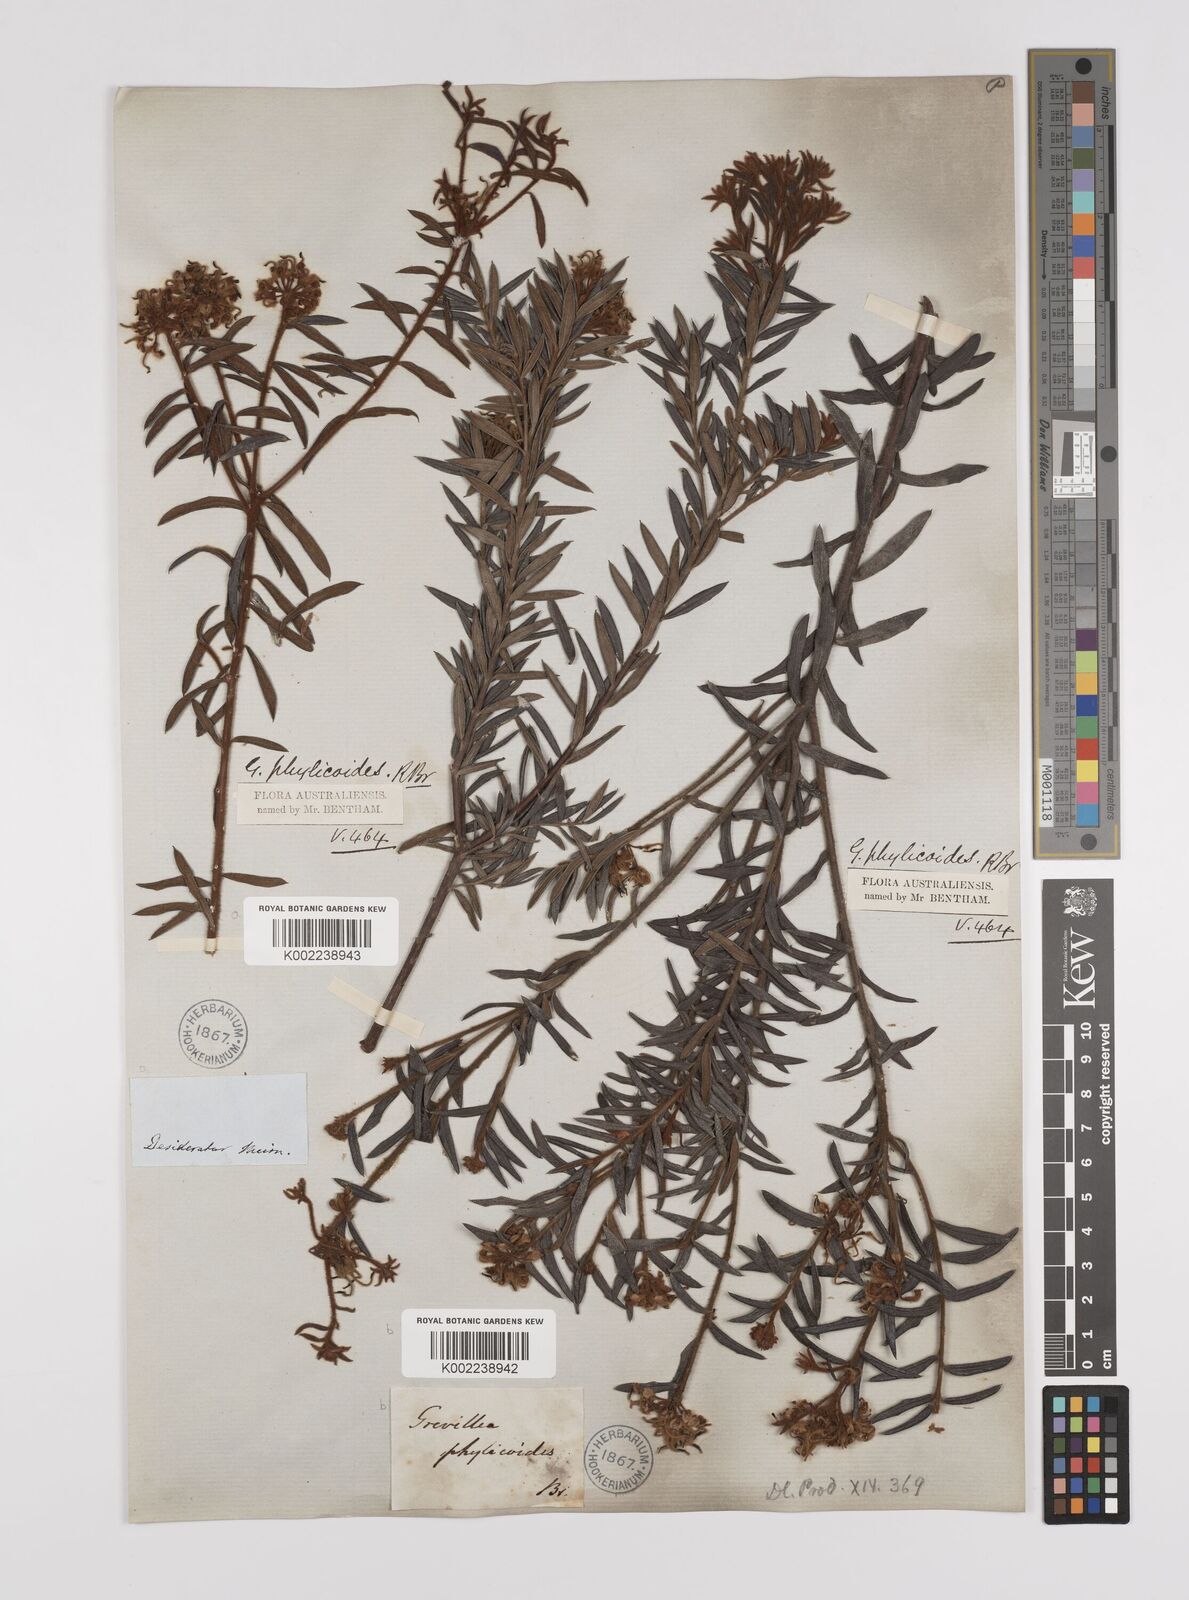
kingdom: Plantae
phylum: Tracheophyta
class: Magnoliopsida
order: Proteales
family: Proteaceae
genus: Grevillea
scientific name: Grevillea phylicoides
